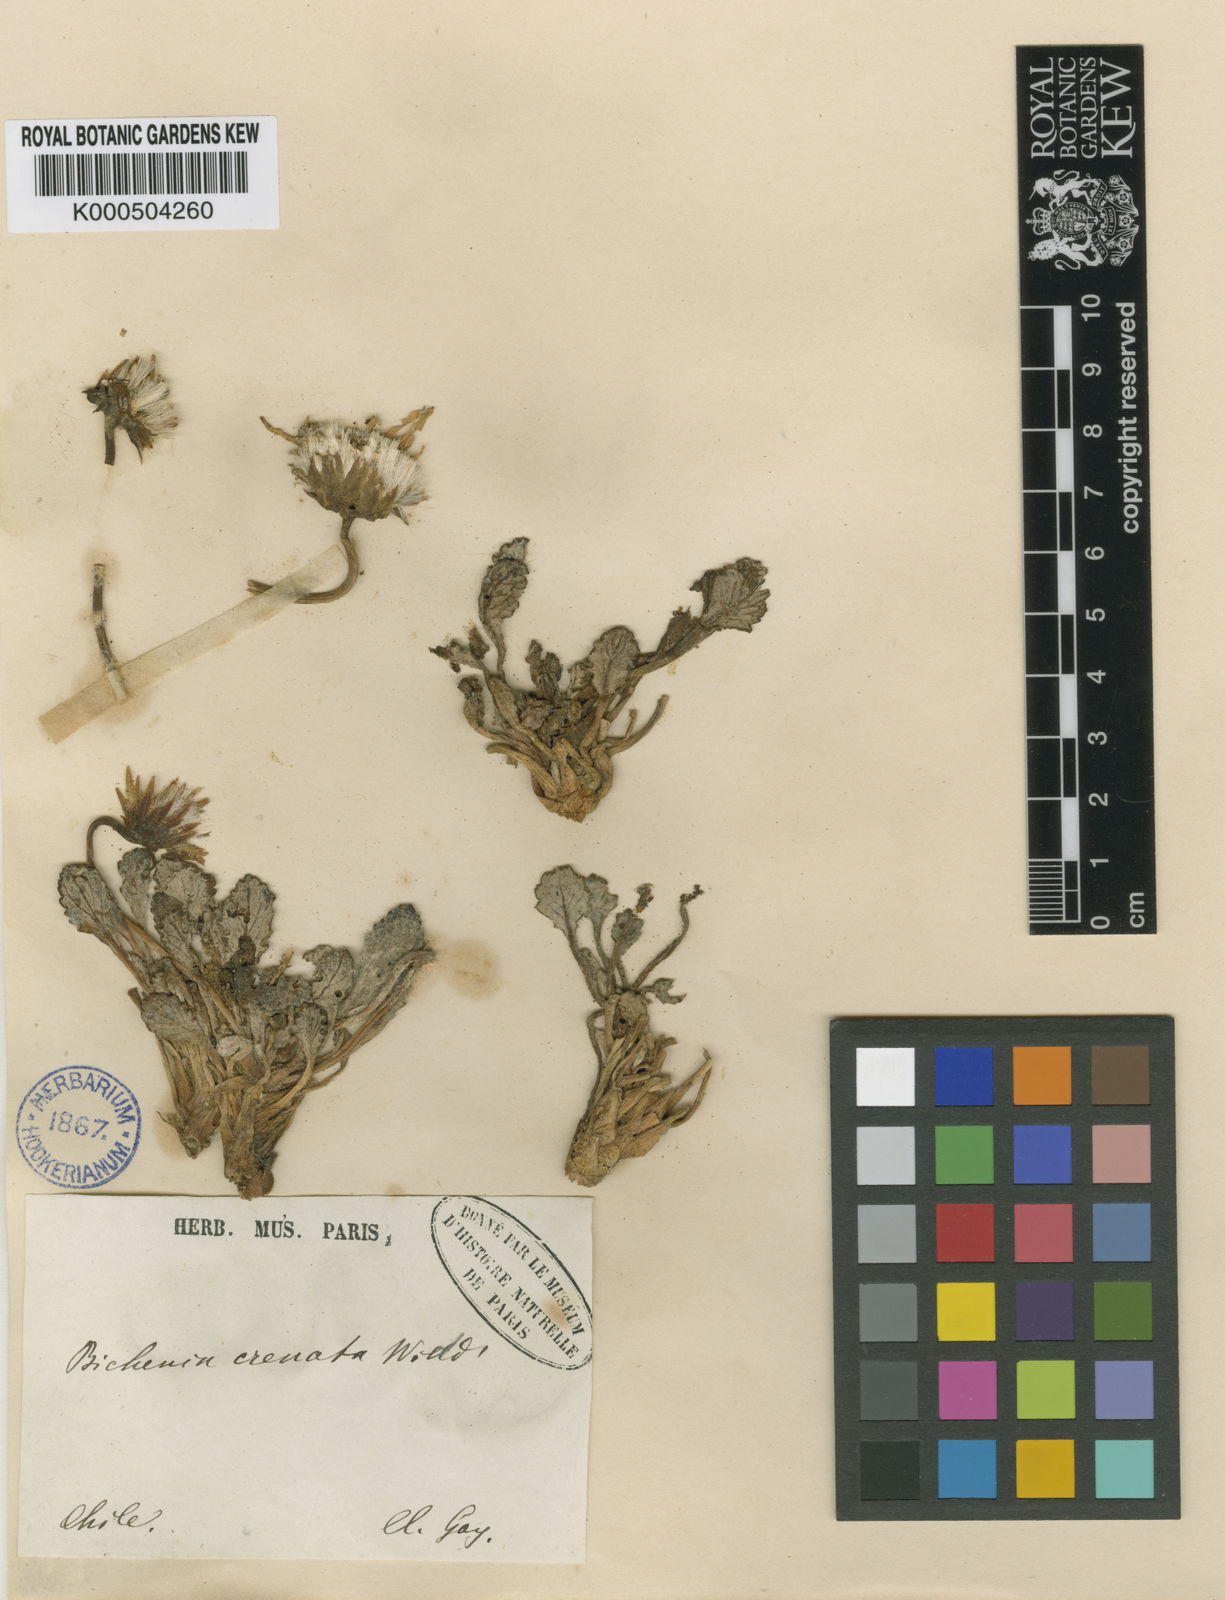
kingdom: Plantae
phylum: Tracheophyta
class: Magnoliopsida
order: Asterales
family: Asteraceae
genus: Trichocline
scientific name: Trichocline cineraria
